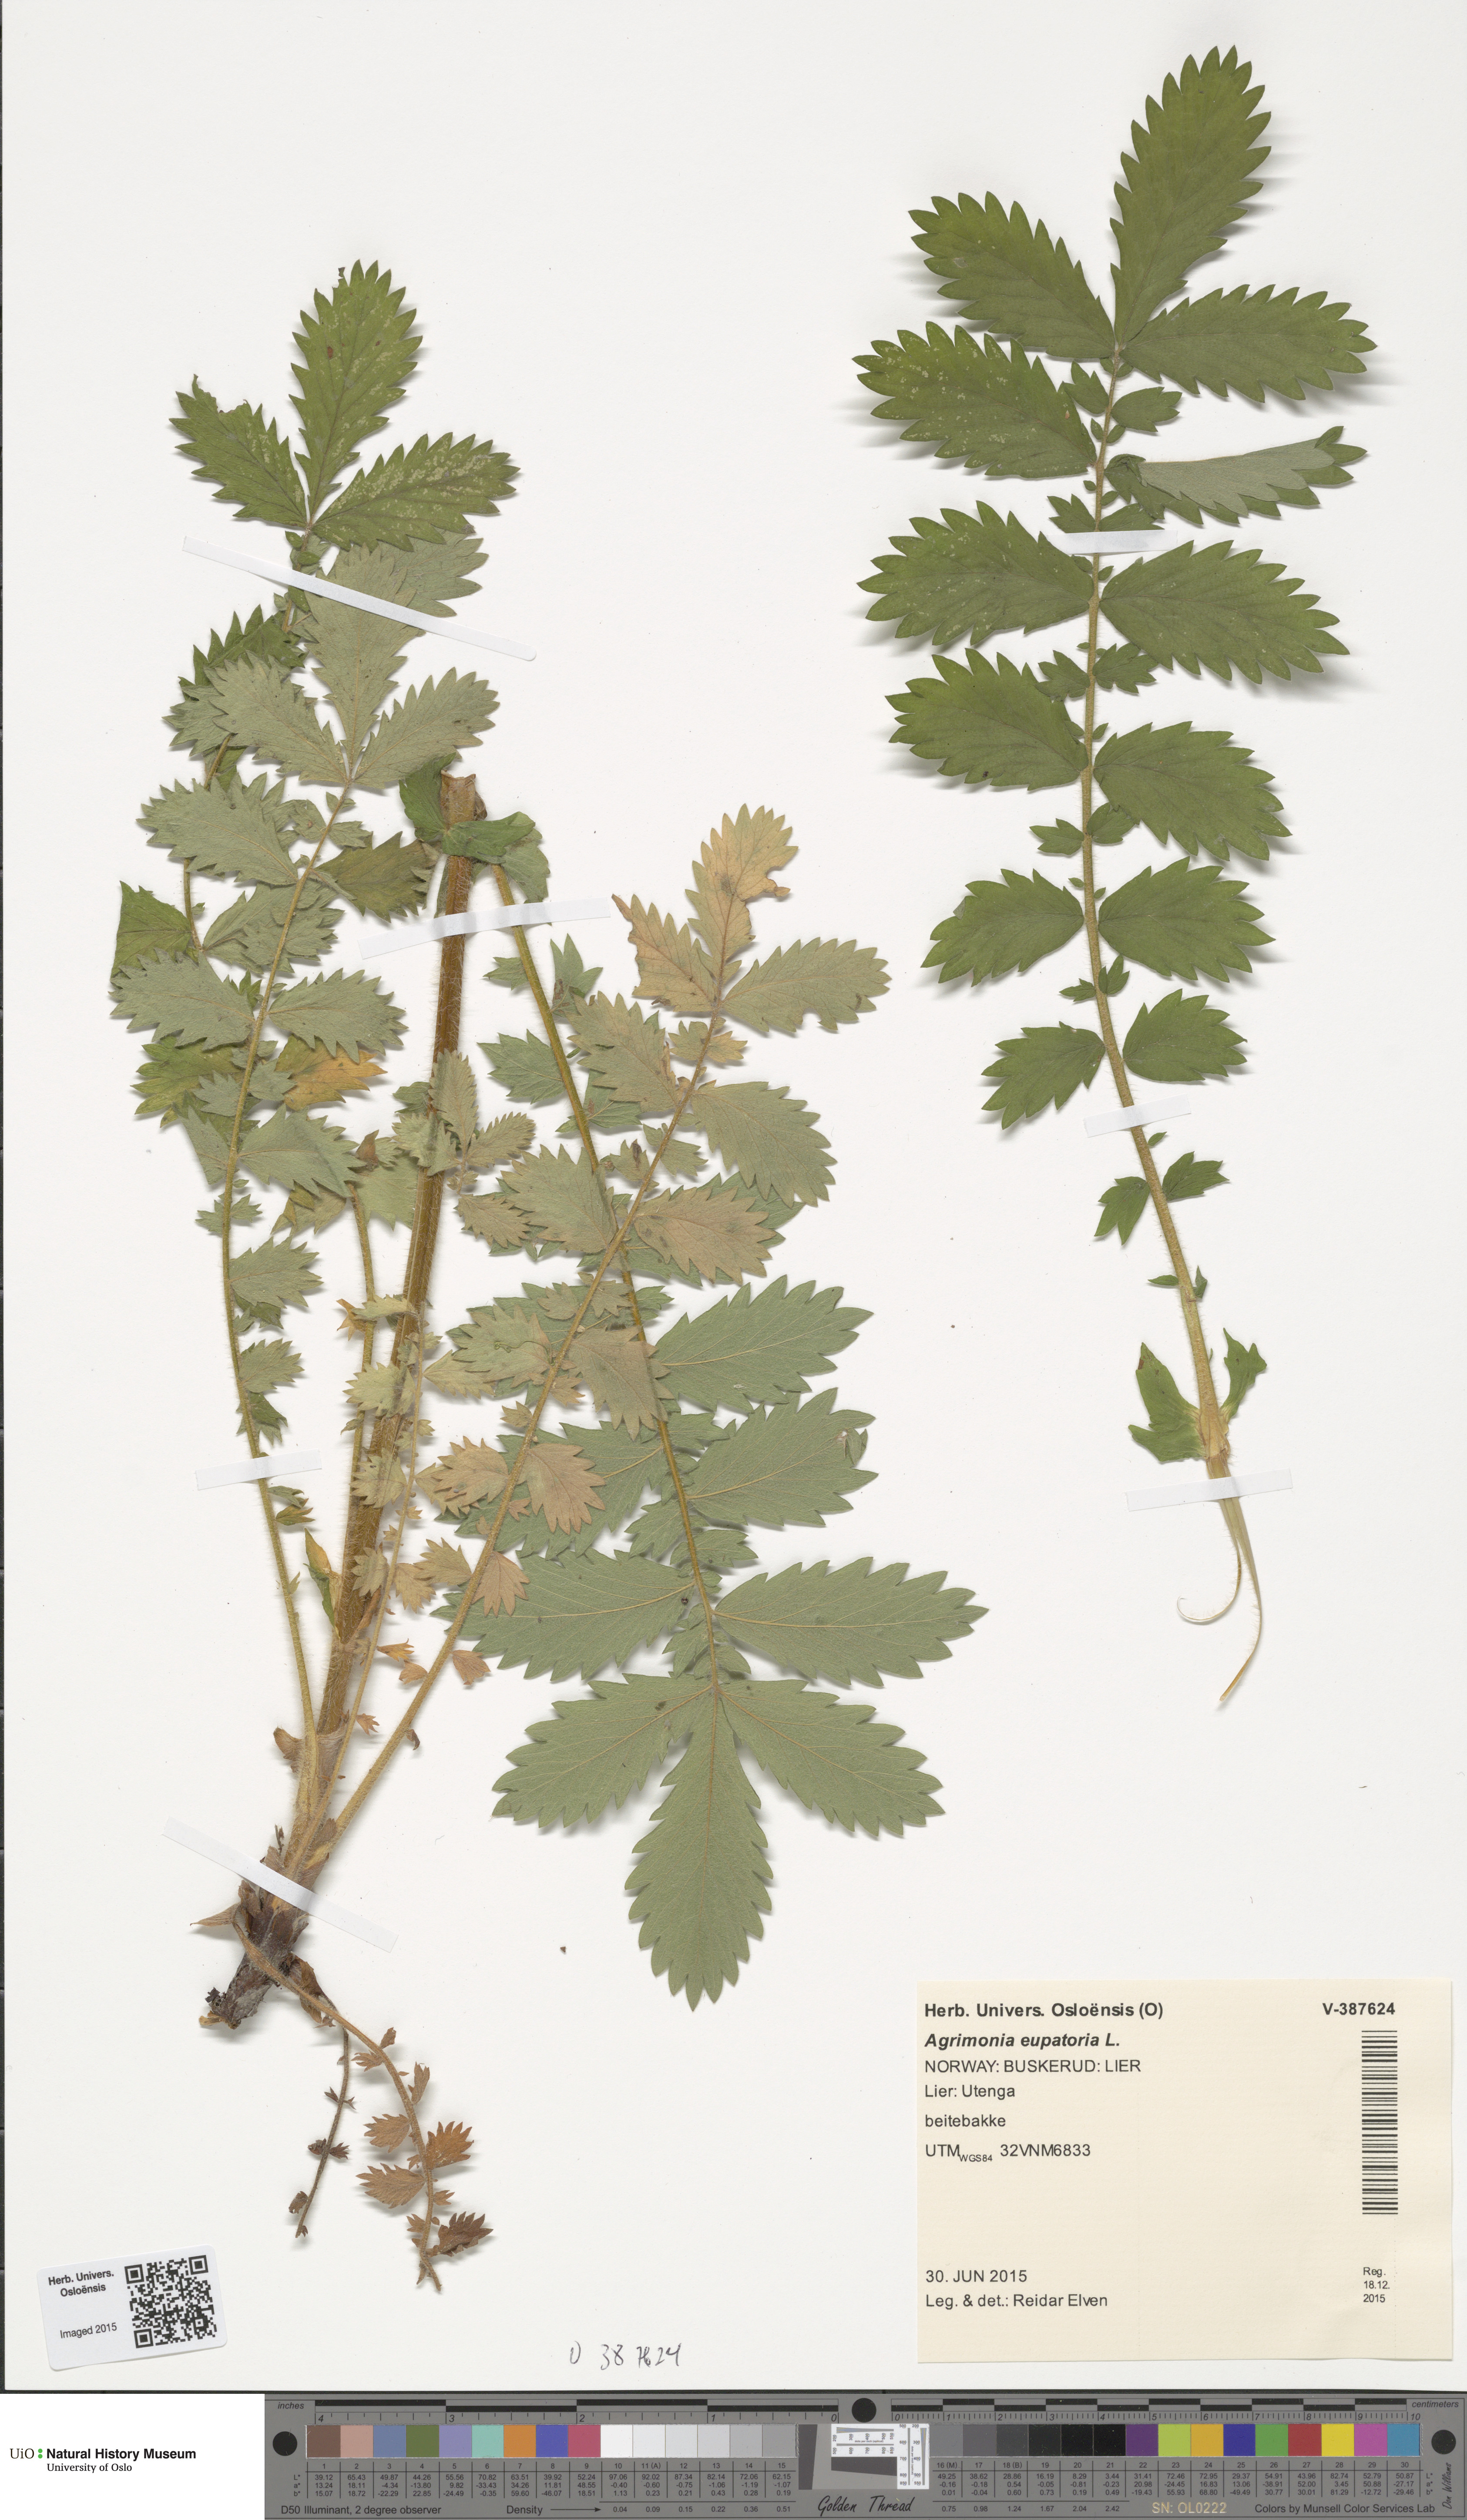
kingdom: Plantae
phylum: Tracheophyta
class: Magnoliopsida
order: Rosales
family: Rosaceae
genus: Agrimonia
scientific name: Agrimonia eupatoria
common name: Agrimony
